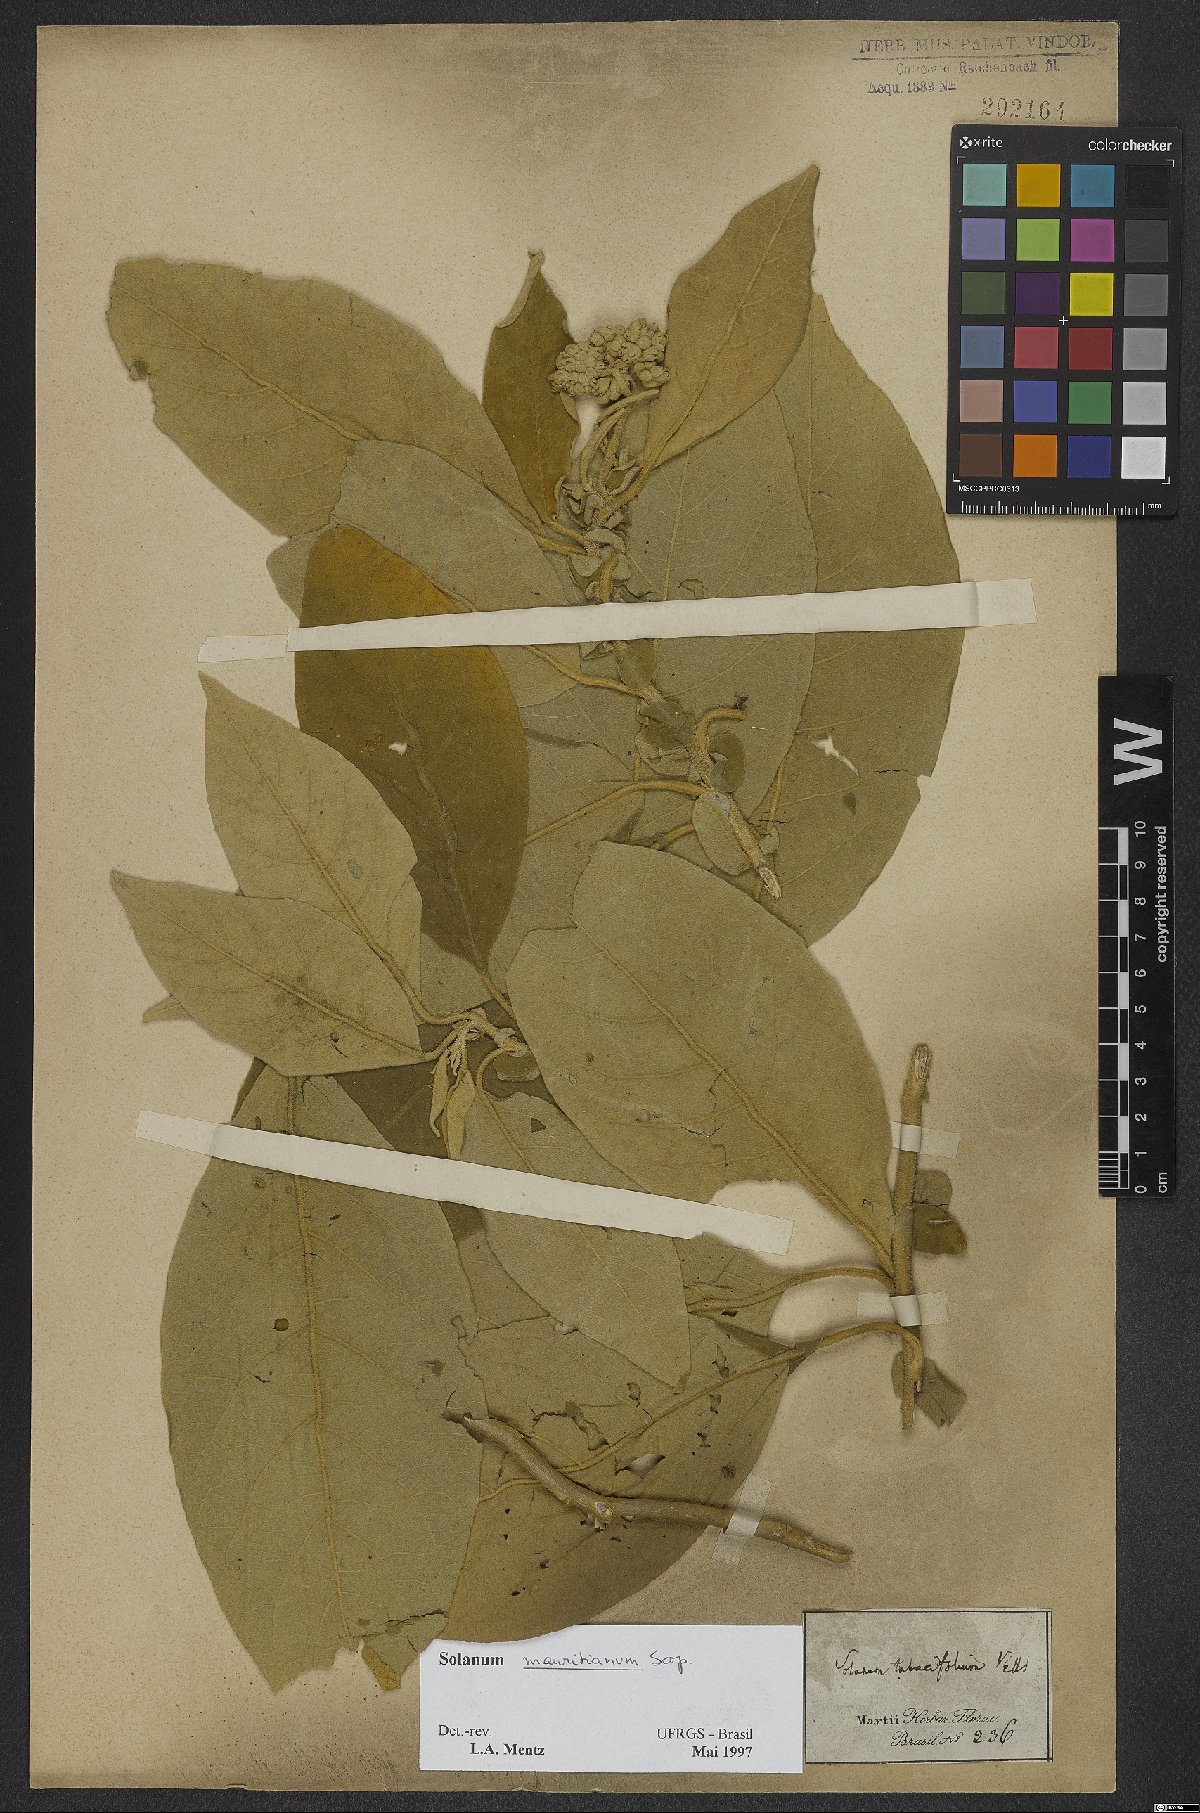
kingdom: Plantae
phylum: Tracheophyta
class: Magnoliopsida
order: Solanales
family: Solanaceae
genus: Solanum
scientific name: Solanum mauritianum
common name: Earleaf nightshade
